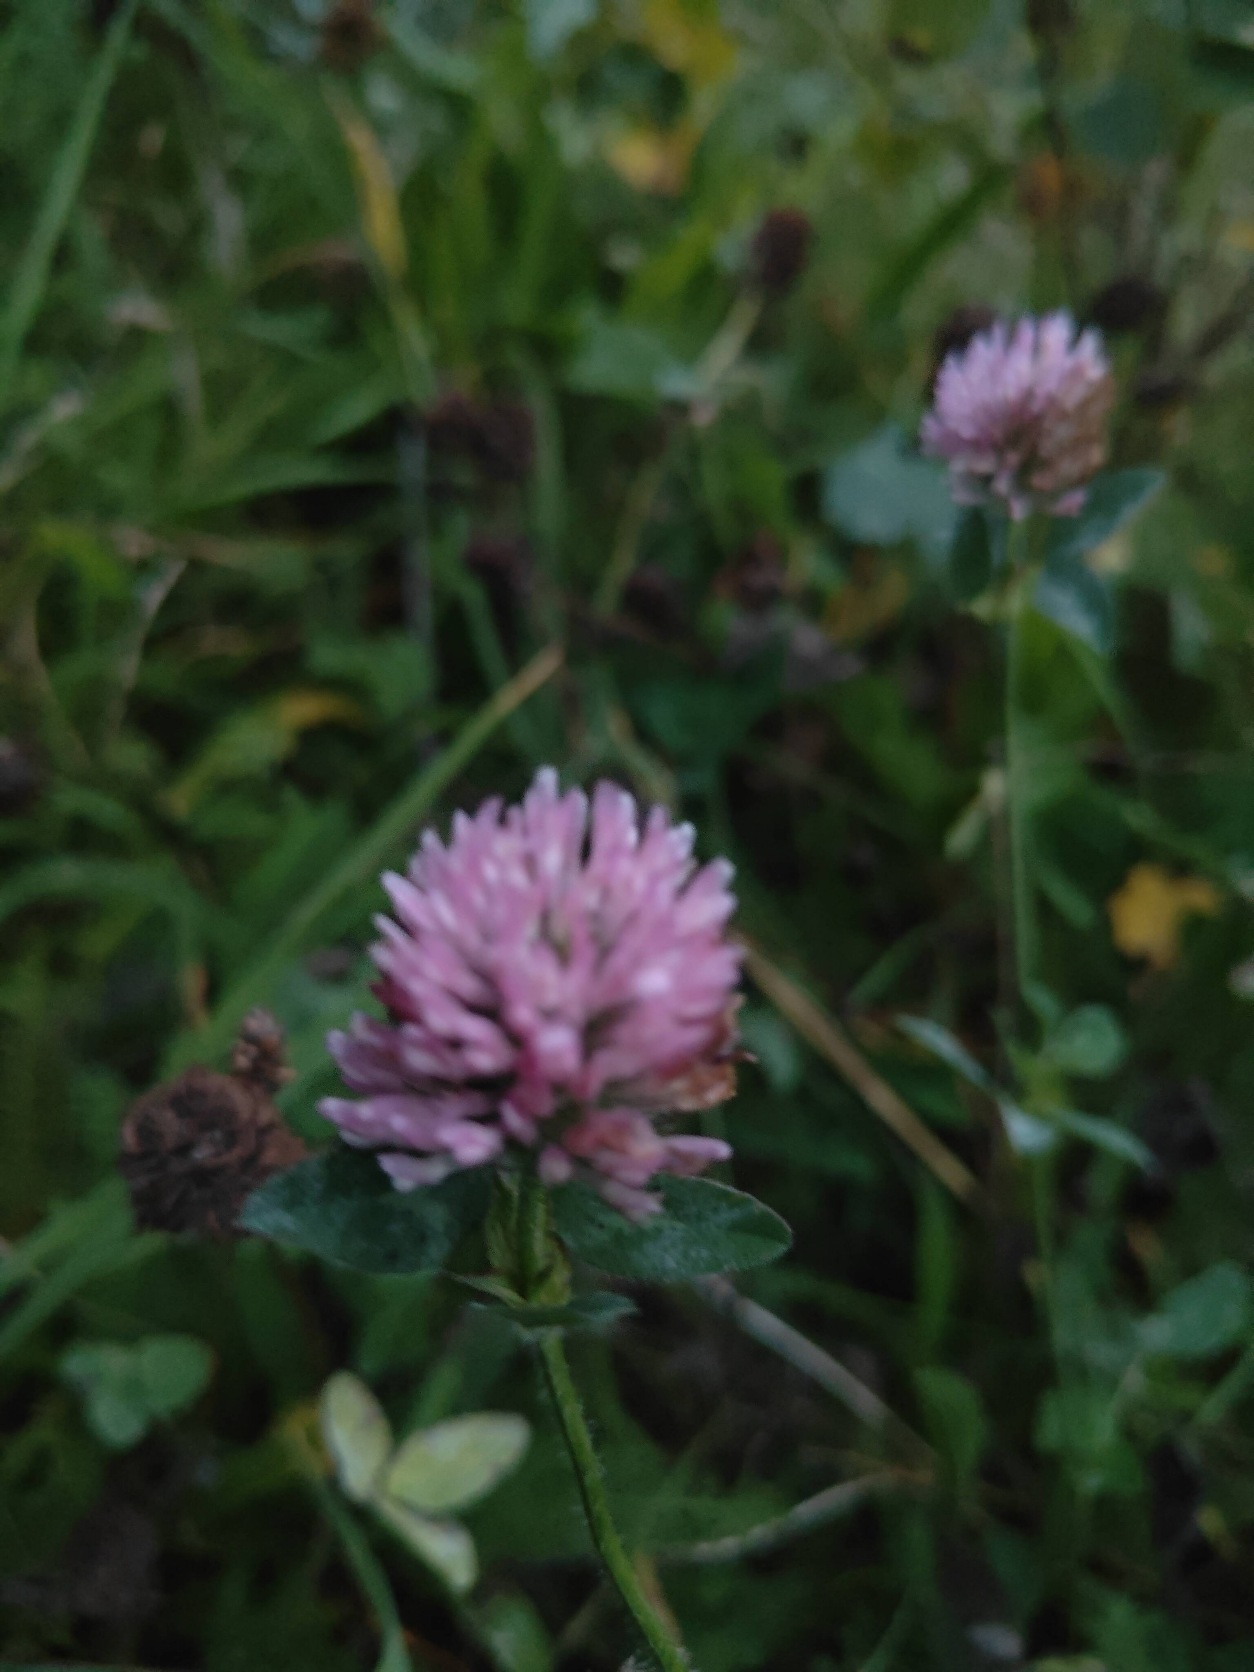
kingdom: Plantae
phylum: Tracheophyta
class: Magnoliopsida
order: Fabales
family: Fabaceae
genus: Trifolium
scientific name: Trifolium pratense
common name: Rød-kløver
